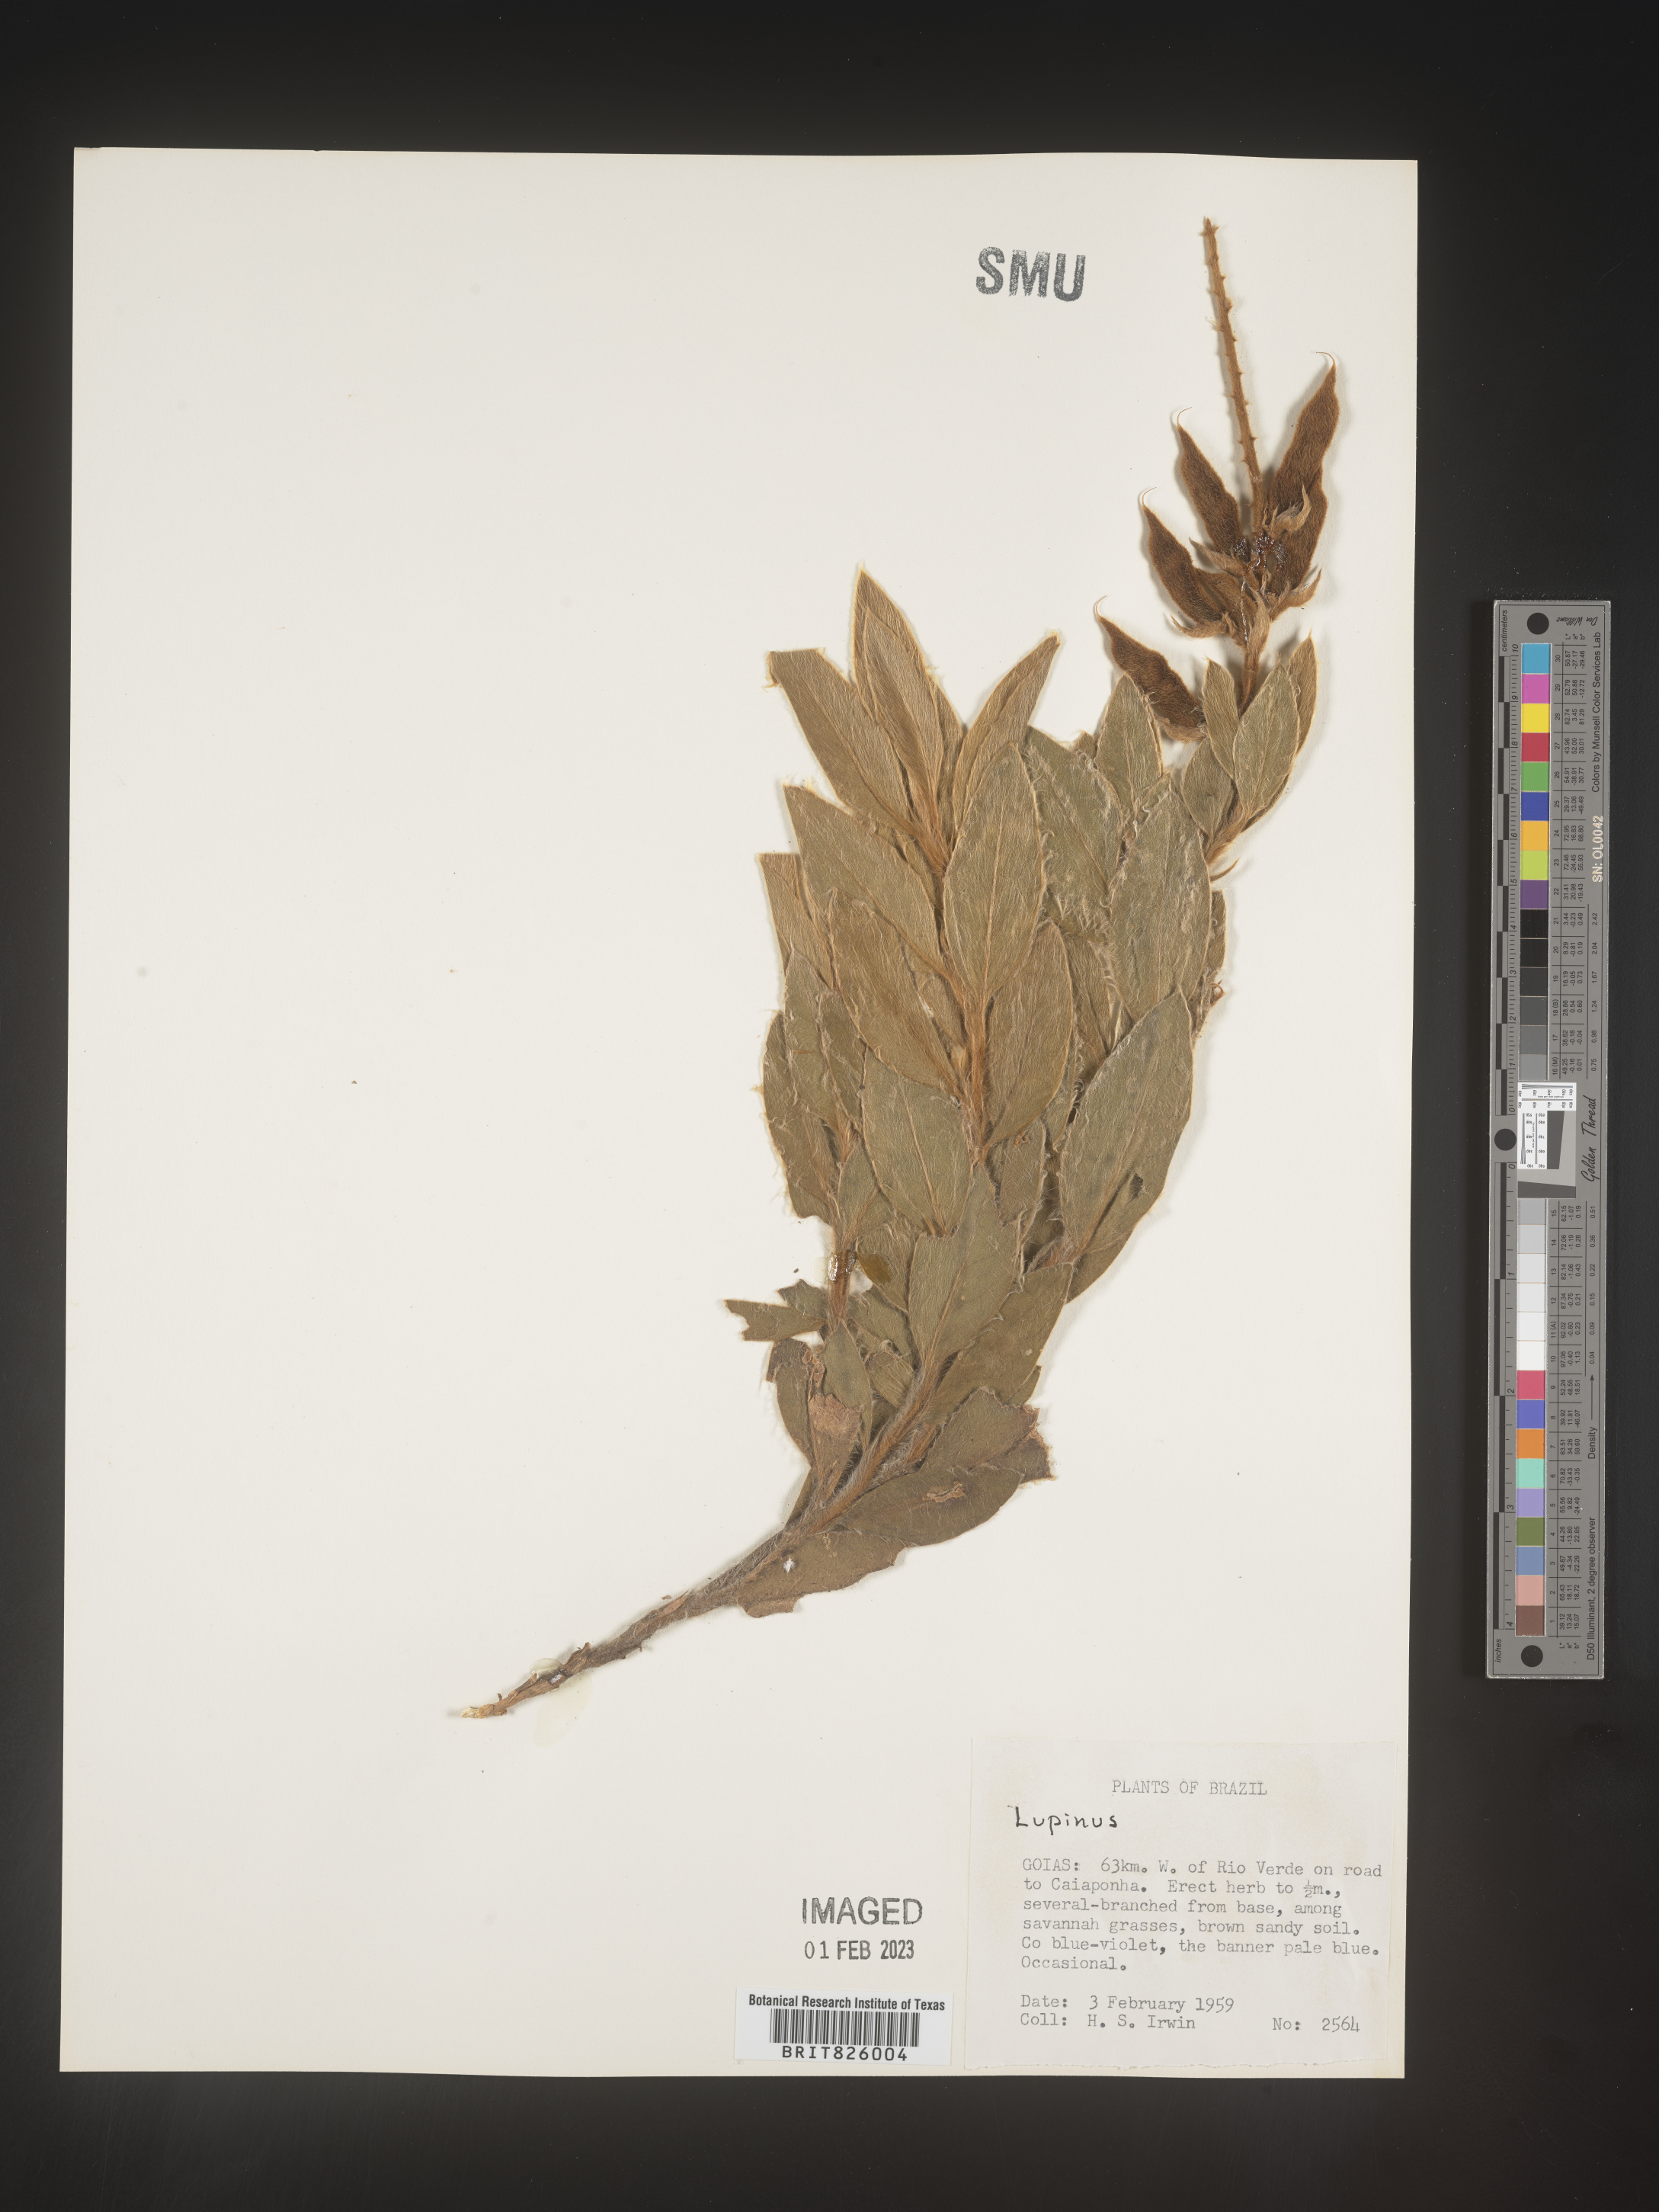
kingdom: Plantae
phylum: Tracheophyta
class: Magnoliopsida
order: Fabales
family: Fabaceae
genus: Lupinus
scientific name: Lupinus
